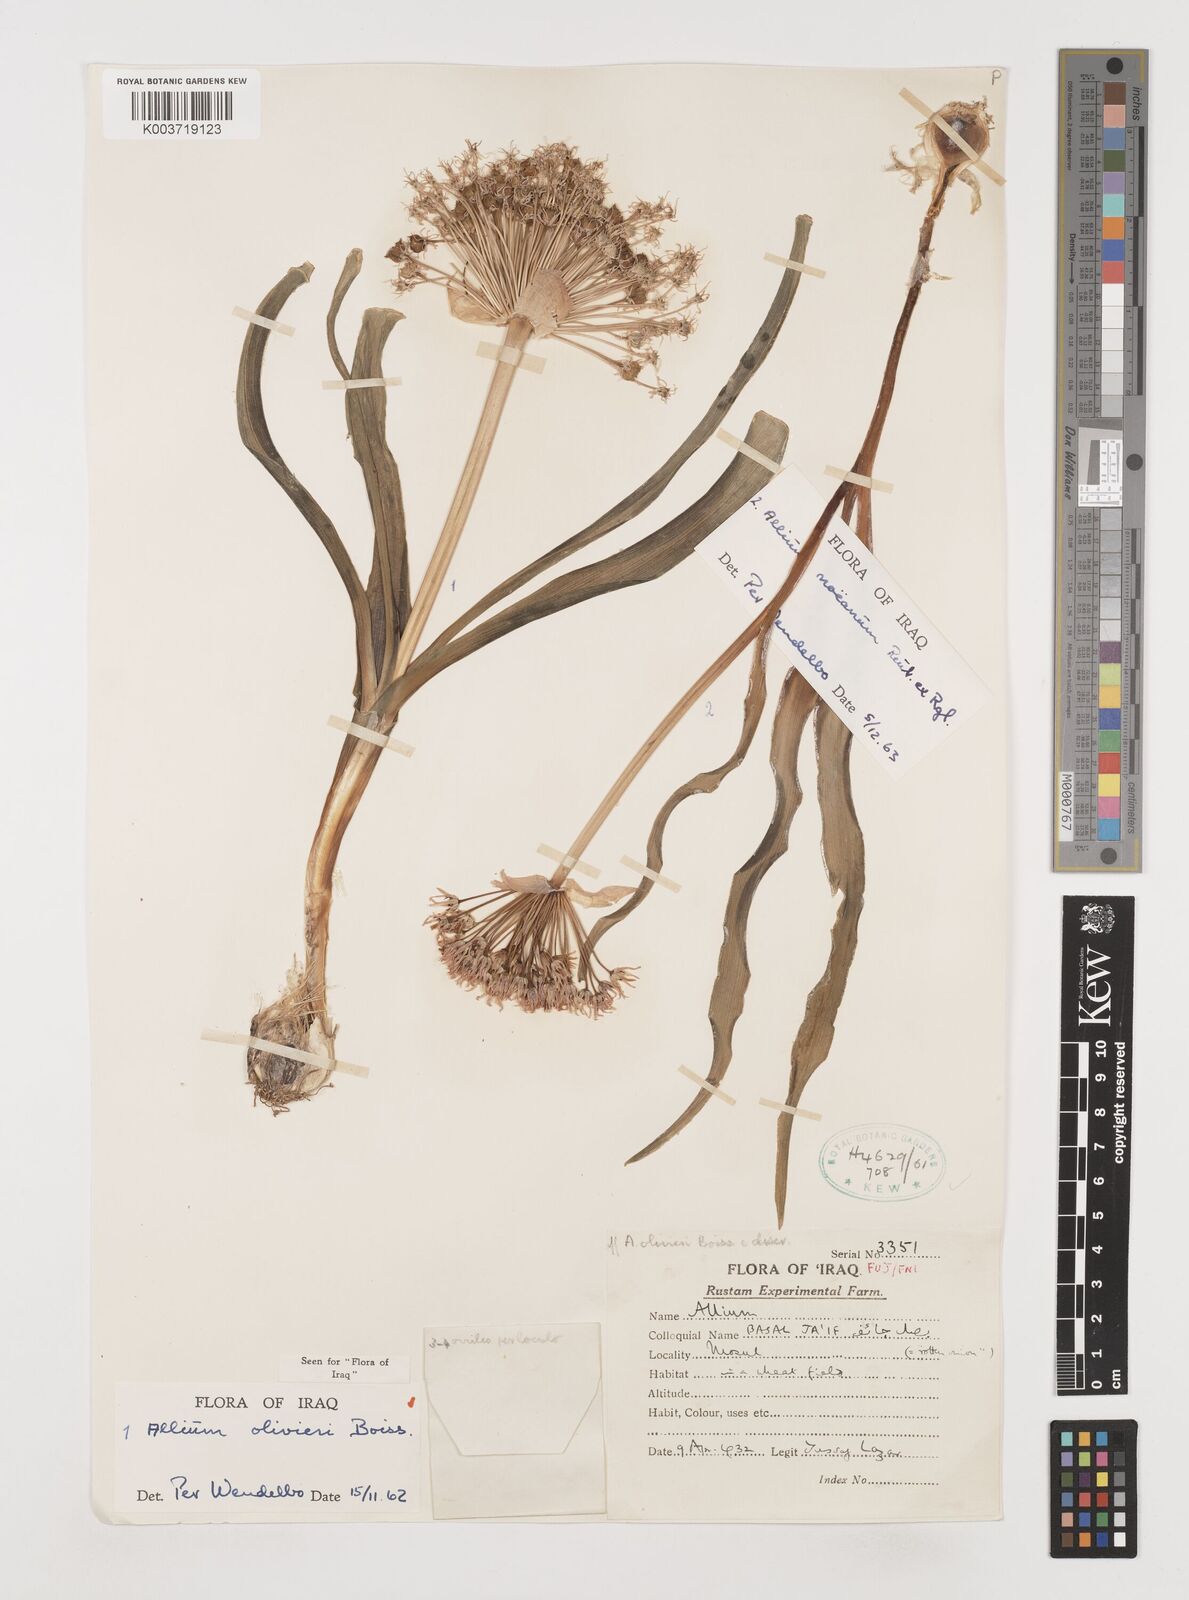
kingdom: Plantae
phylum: Tracheophyta
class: Liliopsida
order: Asparagales
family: Amaryllidaceae
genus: Allium
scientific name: Allium olivieri
